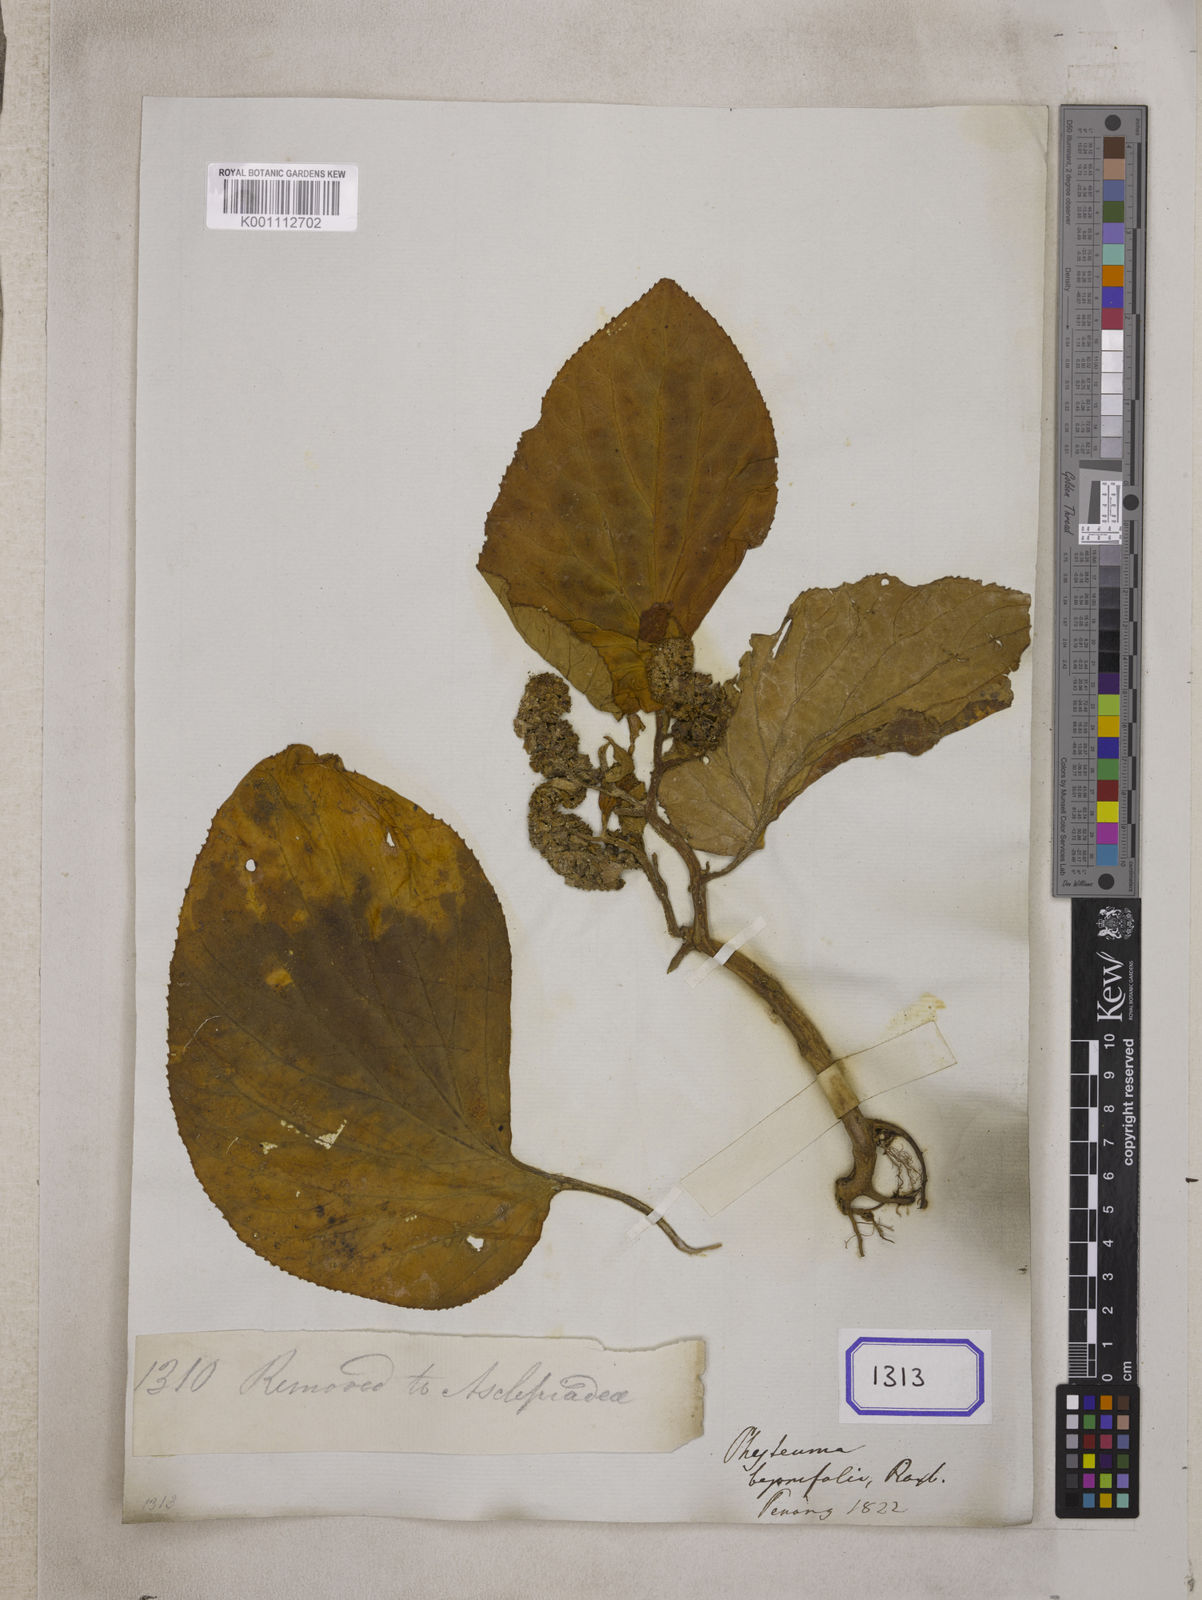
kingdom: Plantae
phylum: Tracheophyta
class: Magnoliopsida
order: Asterales
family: Pentaphragmataceae
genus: Pentaphragma
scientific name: Pentaphragma begoniifolium
